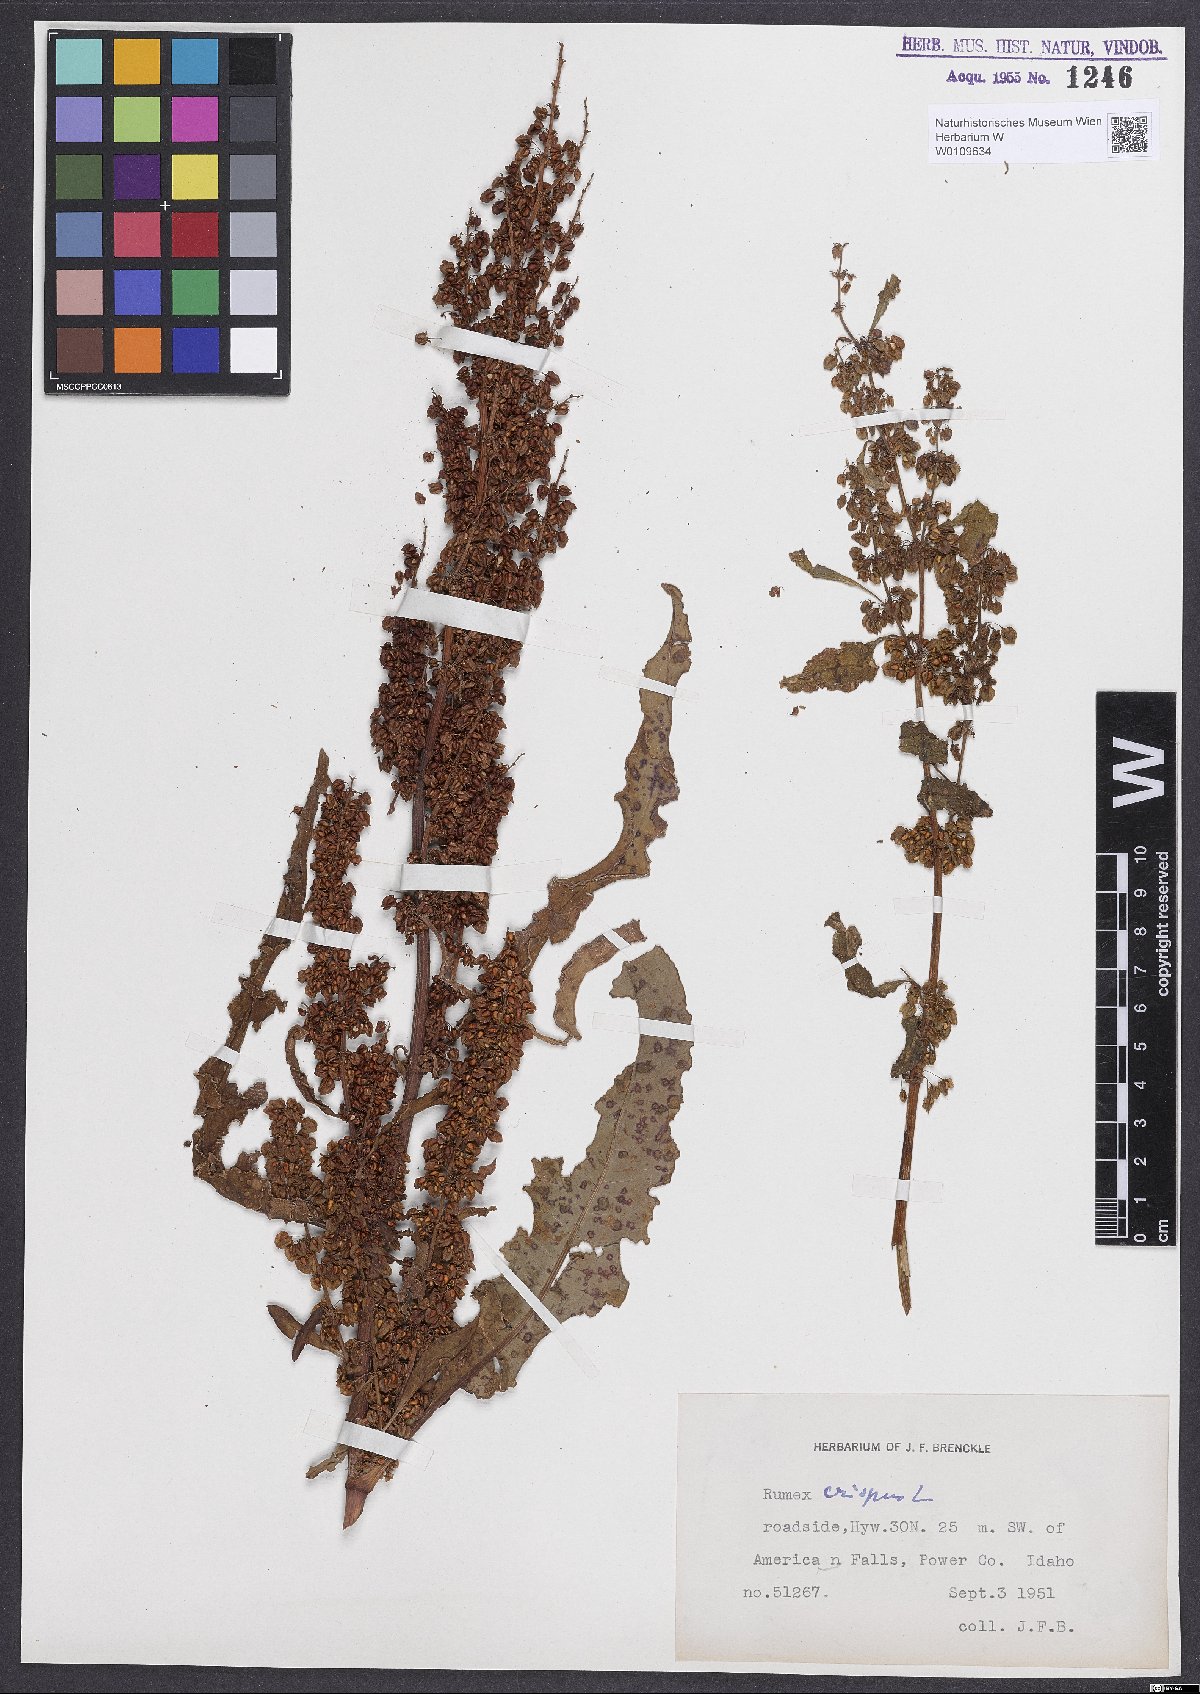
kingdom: Plantae
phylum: Tracheophyta
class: Magnoliopsida
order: Caryophyllales
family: Polygonaceae
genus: Rumex
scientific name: Rumex crispus
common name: Curled dock
